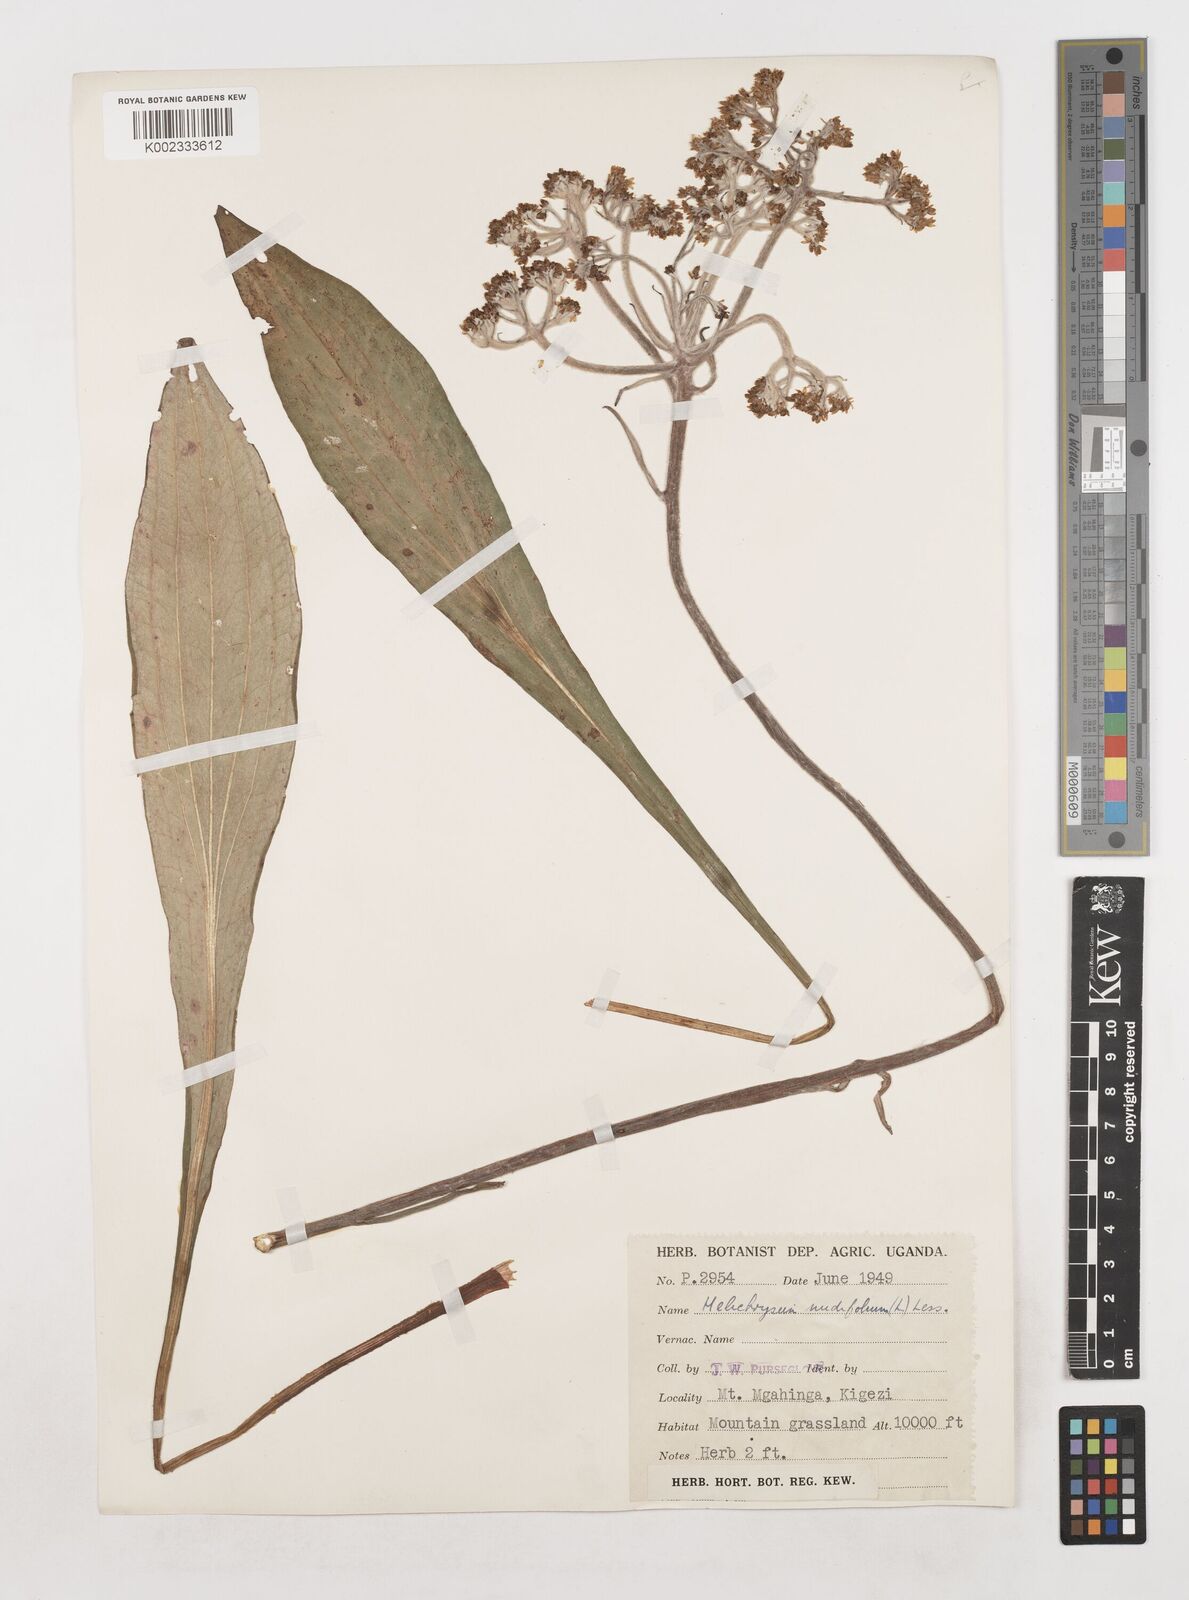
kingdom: Plantae
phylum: Tracheophyta
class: Magnoliopsida
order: Asterales
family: Asteraceae
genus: Helichrysum
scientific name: Helichrysum globosum
